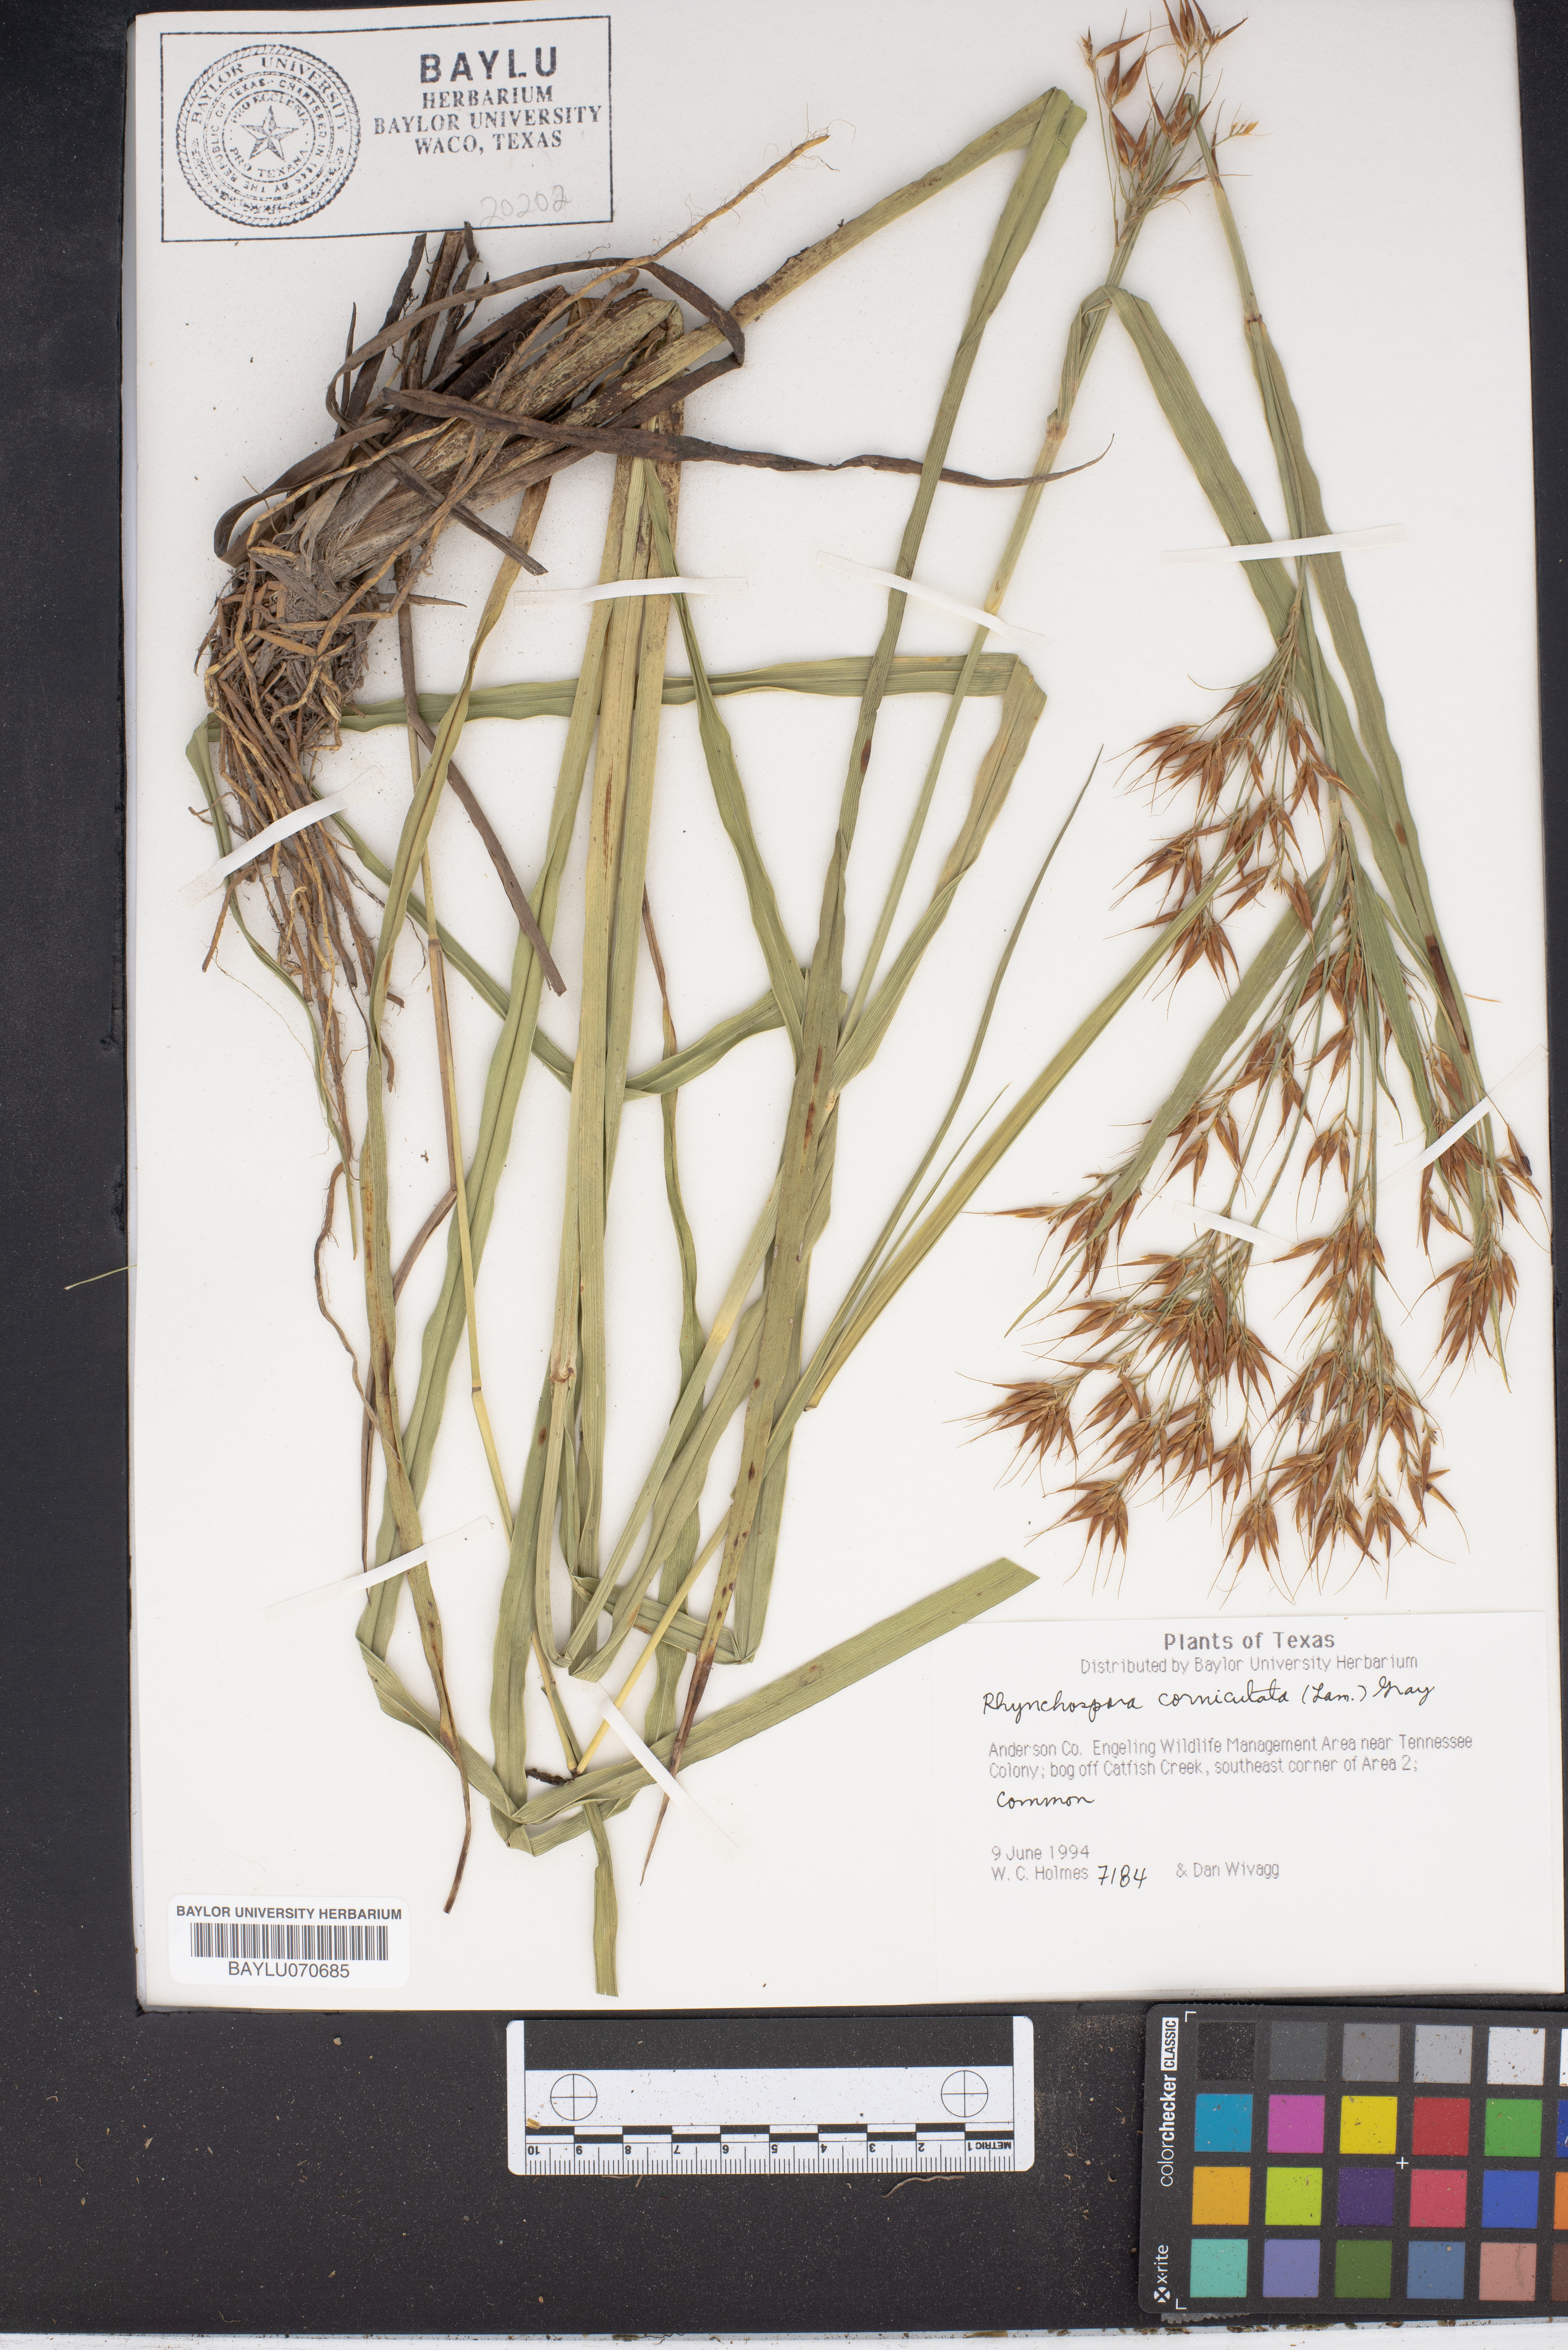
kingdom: Plantae
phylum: Tracheophyta
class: Liliopsida
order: Poales
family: Cyperaceae
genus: Rhynchospora
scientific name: Rhynchospora corniculata
